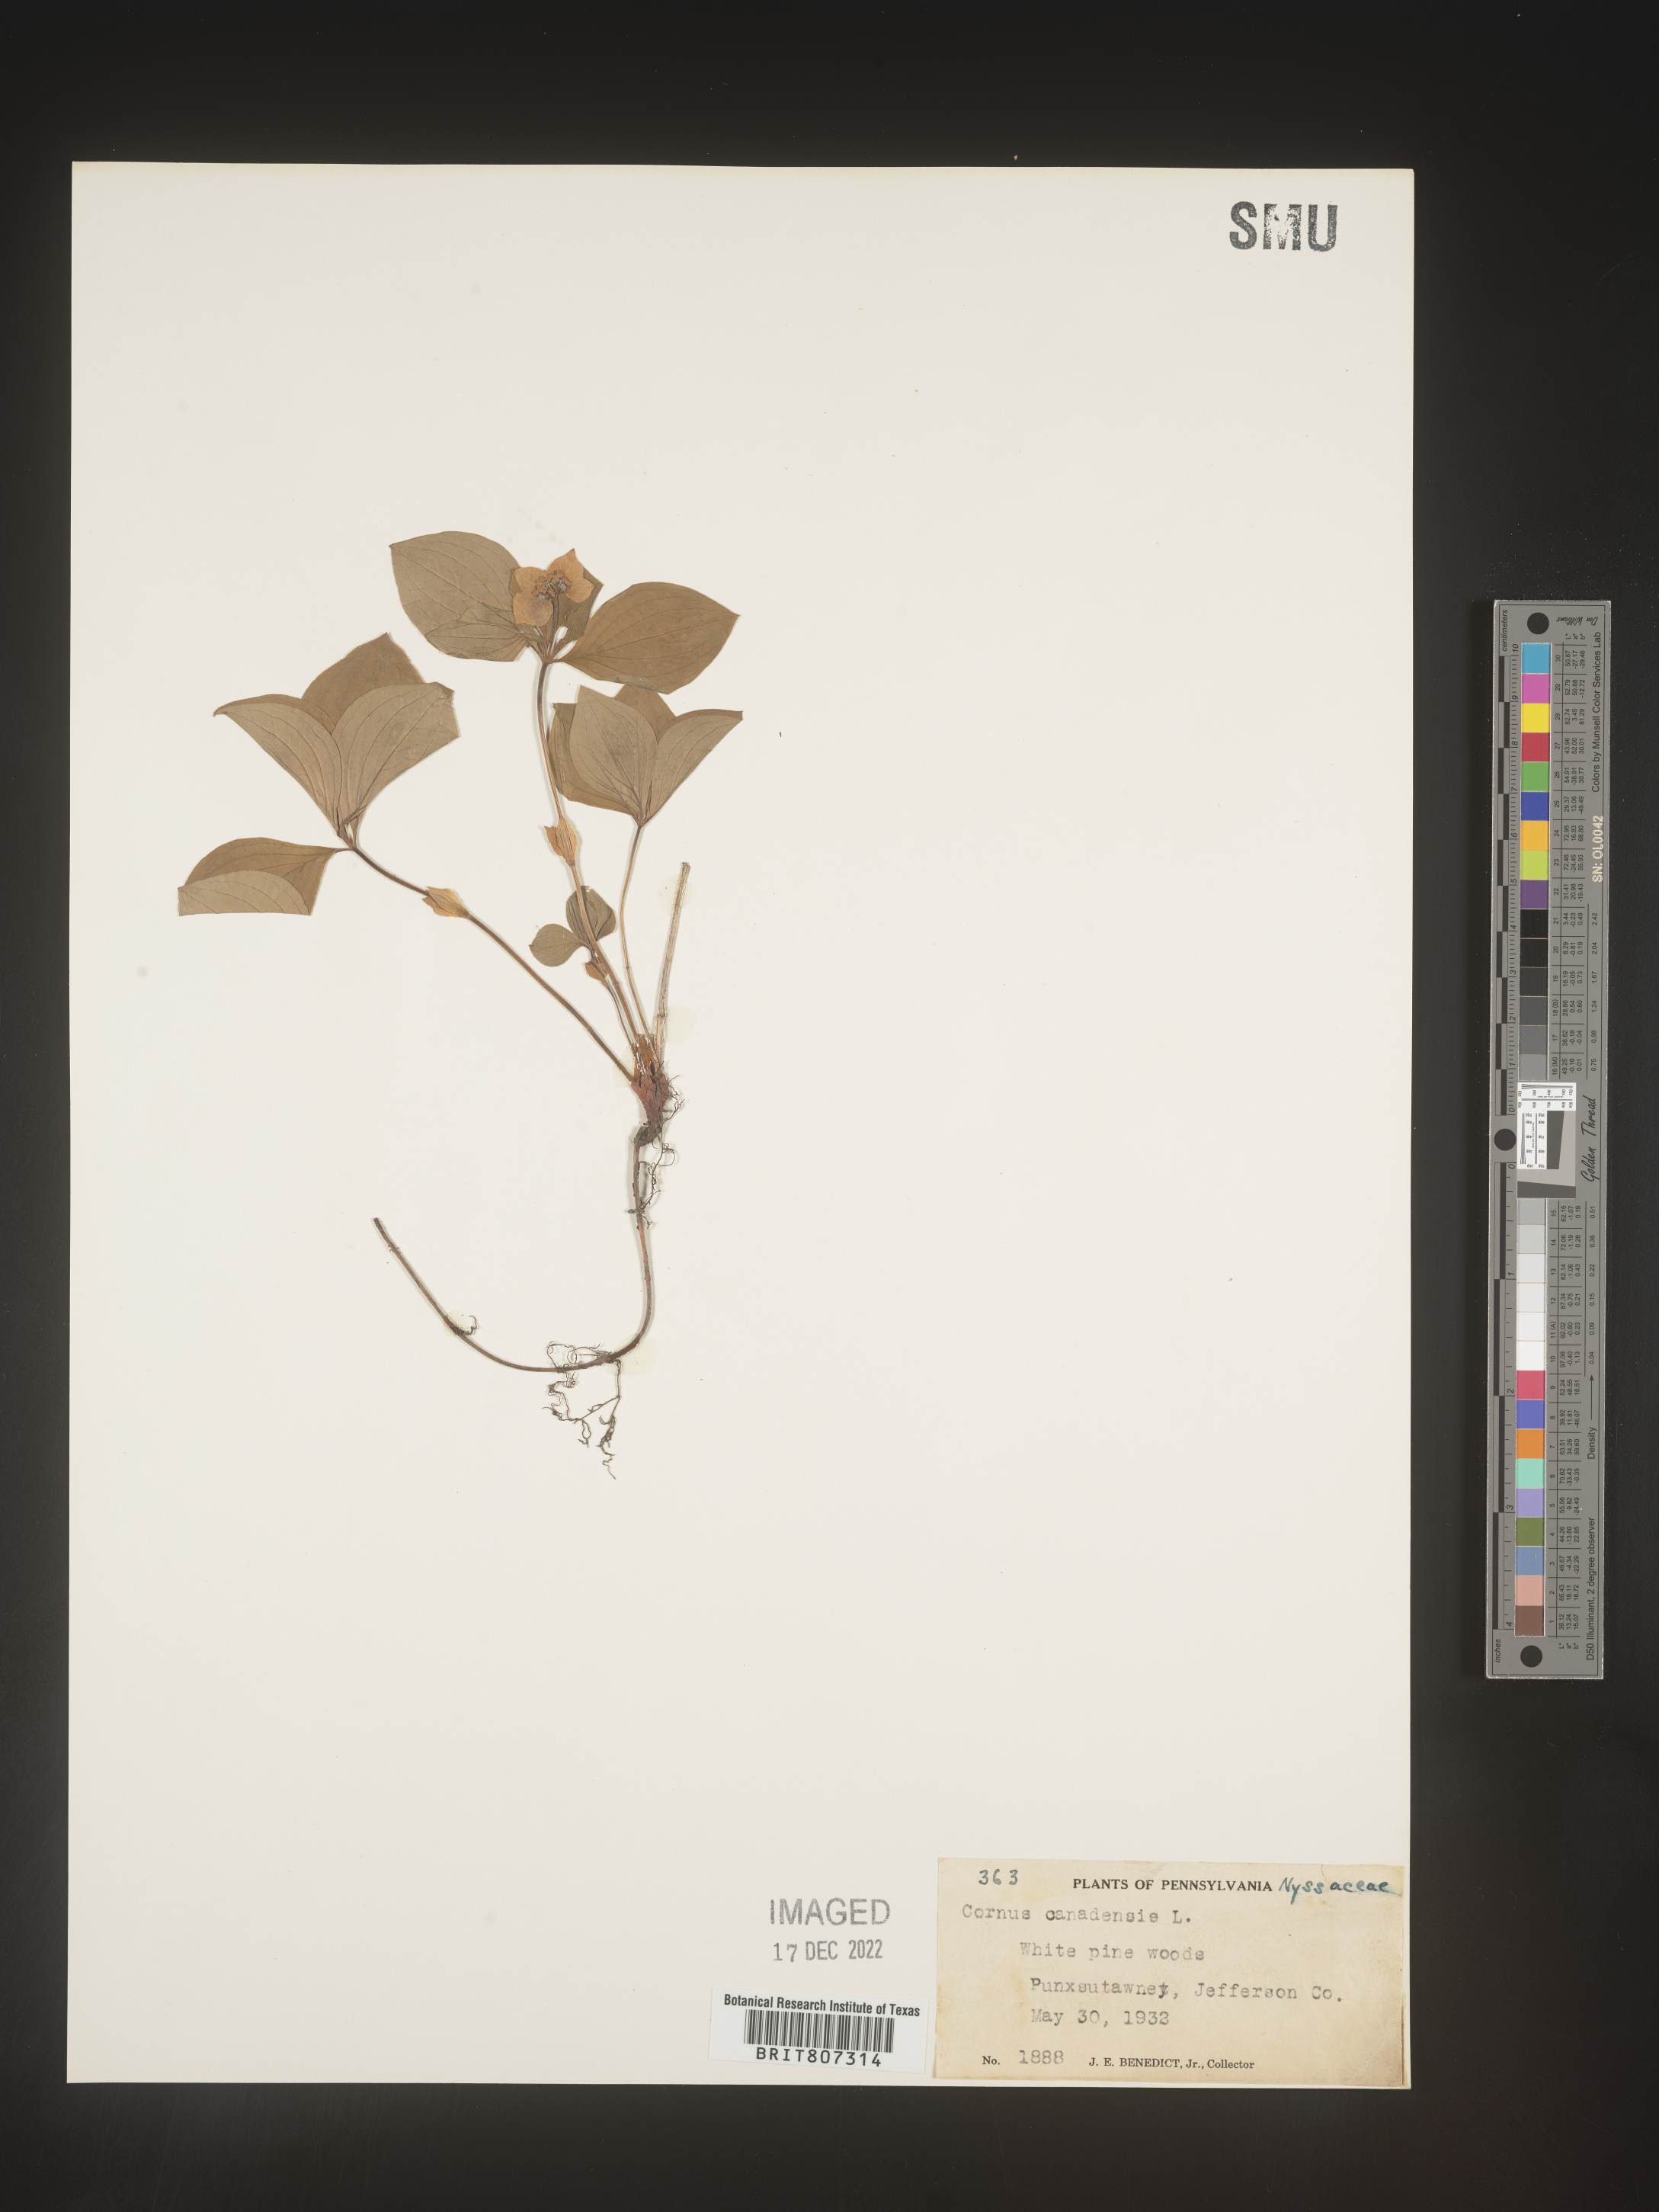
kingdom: Plantae
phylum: Tracheophyta
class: Magnoliopsida
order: Cornales
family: Cornaceae
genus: Cornus
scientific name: Cornus canadensis
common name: Creeping dogwood
